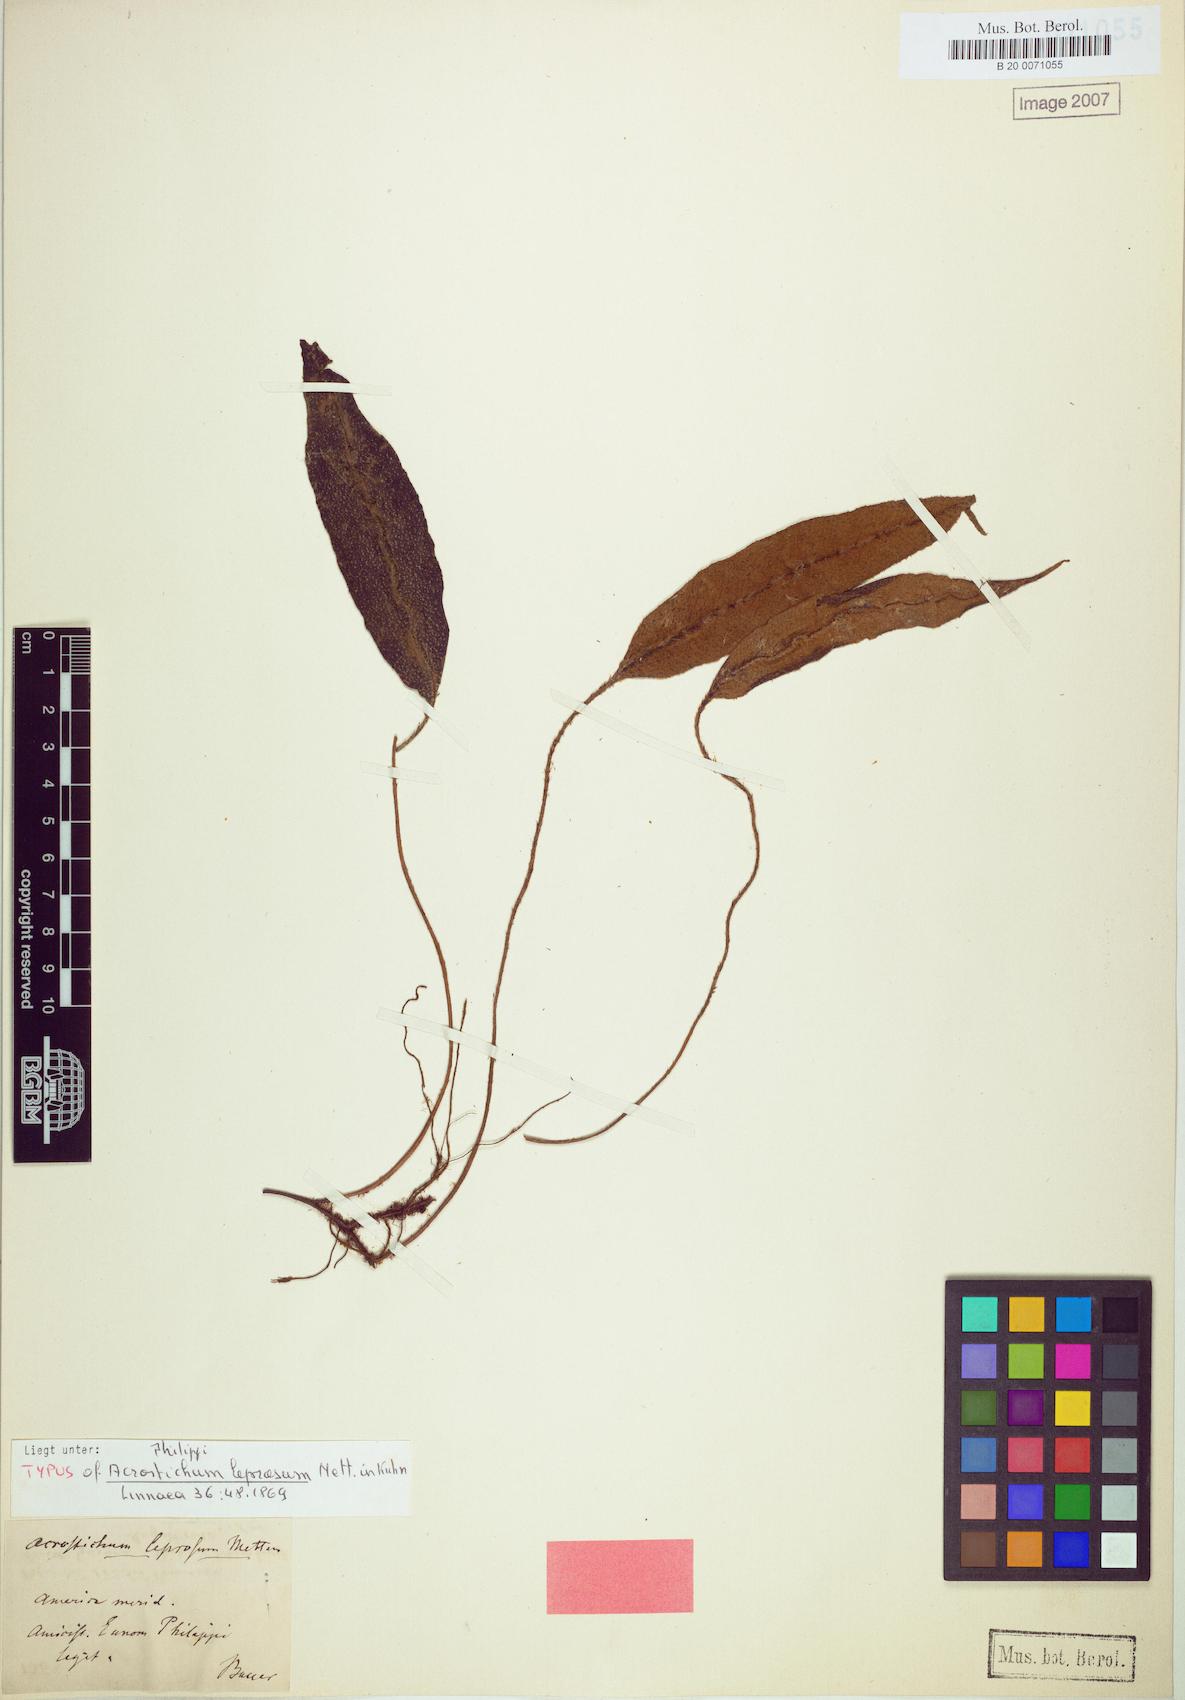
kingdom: Plantae
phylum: Tracheophyta
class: Polypodiopsida
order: Polypodiales
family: Dryopteridaceae
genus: Elaphoglossum
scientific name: Elaphoglossum leprosum
